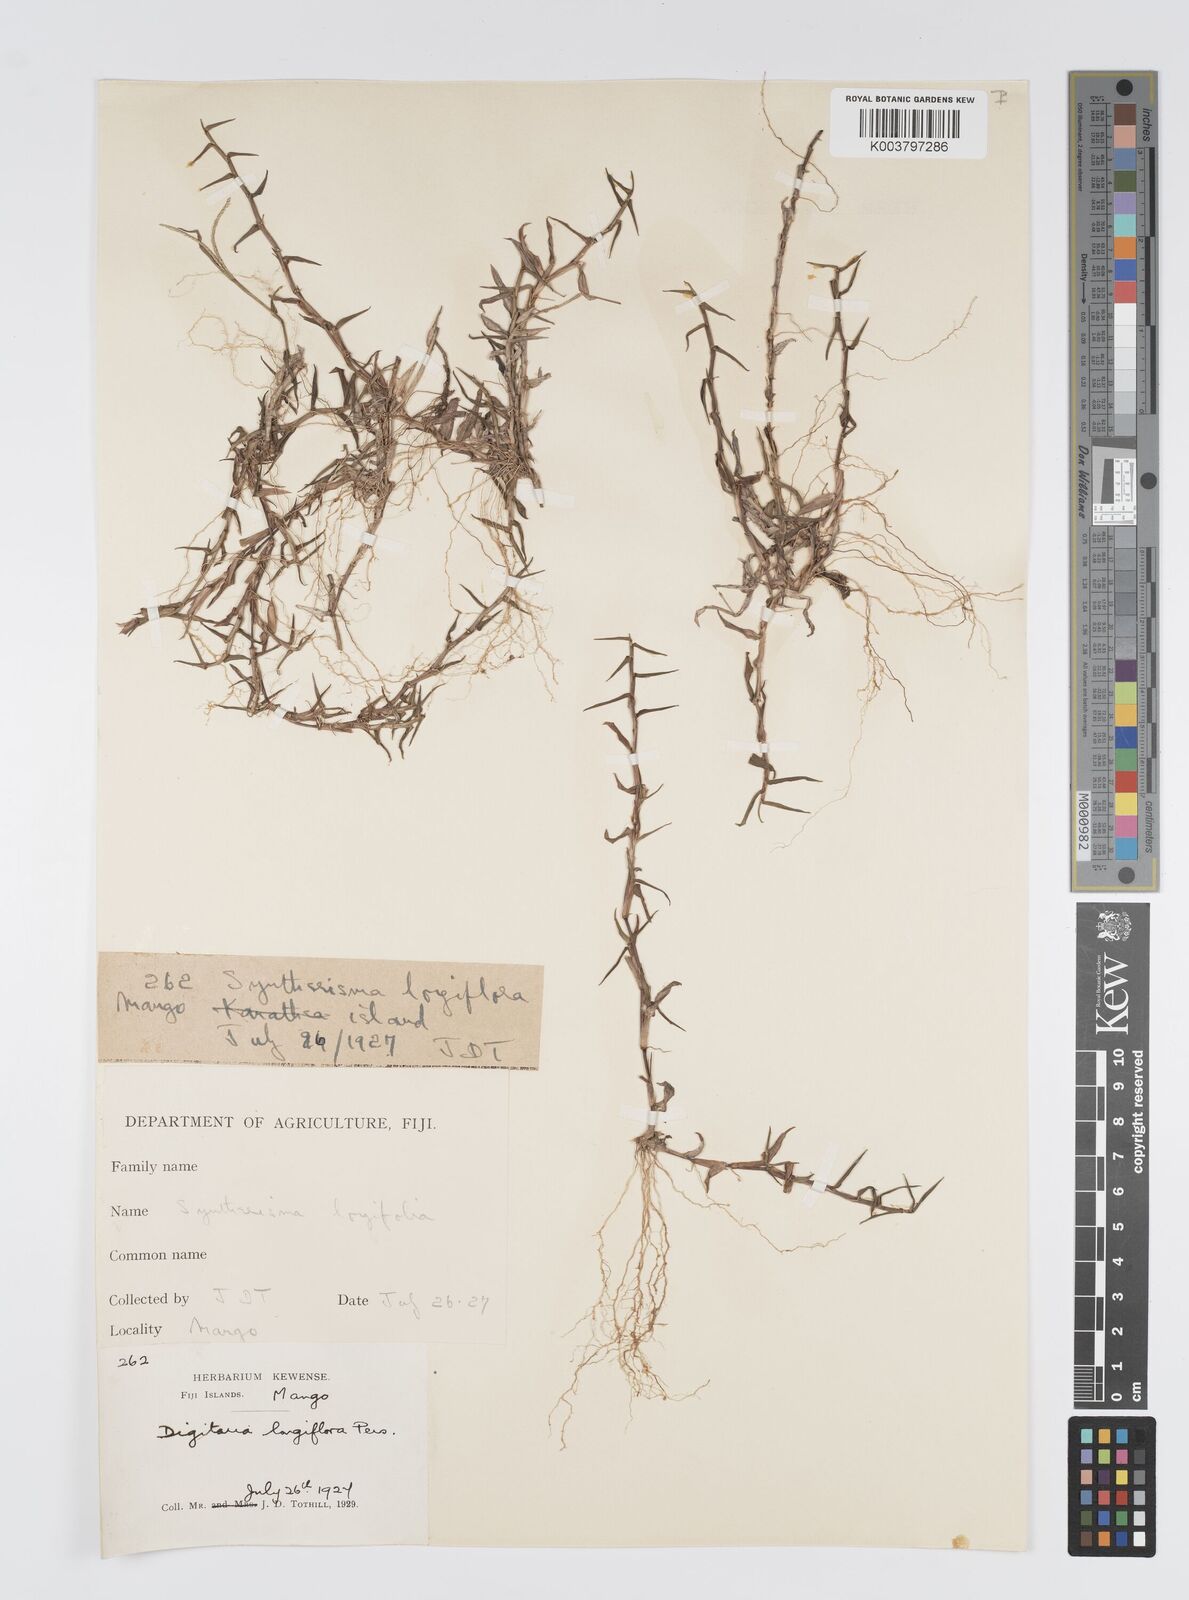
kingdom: Plantae
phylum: Tracheophyta
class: Liliopsida
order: Poales
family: Poaceae
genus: Digitaria
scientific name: Digitaria fuscescens
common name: Yellow crabgrass
